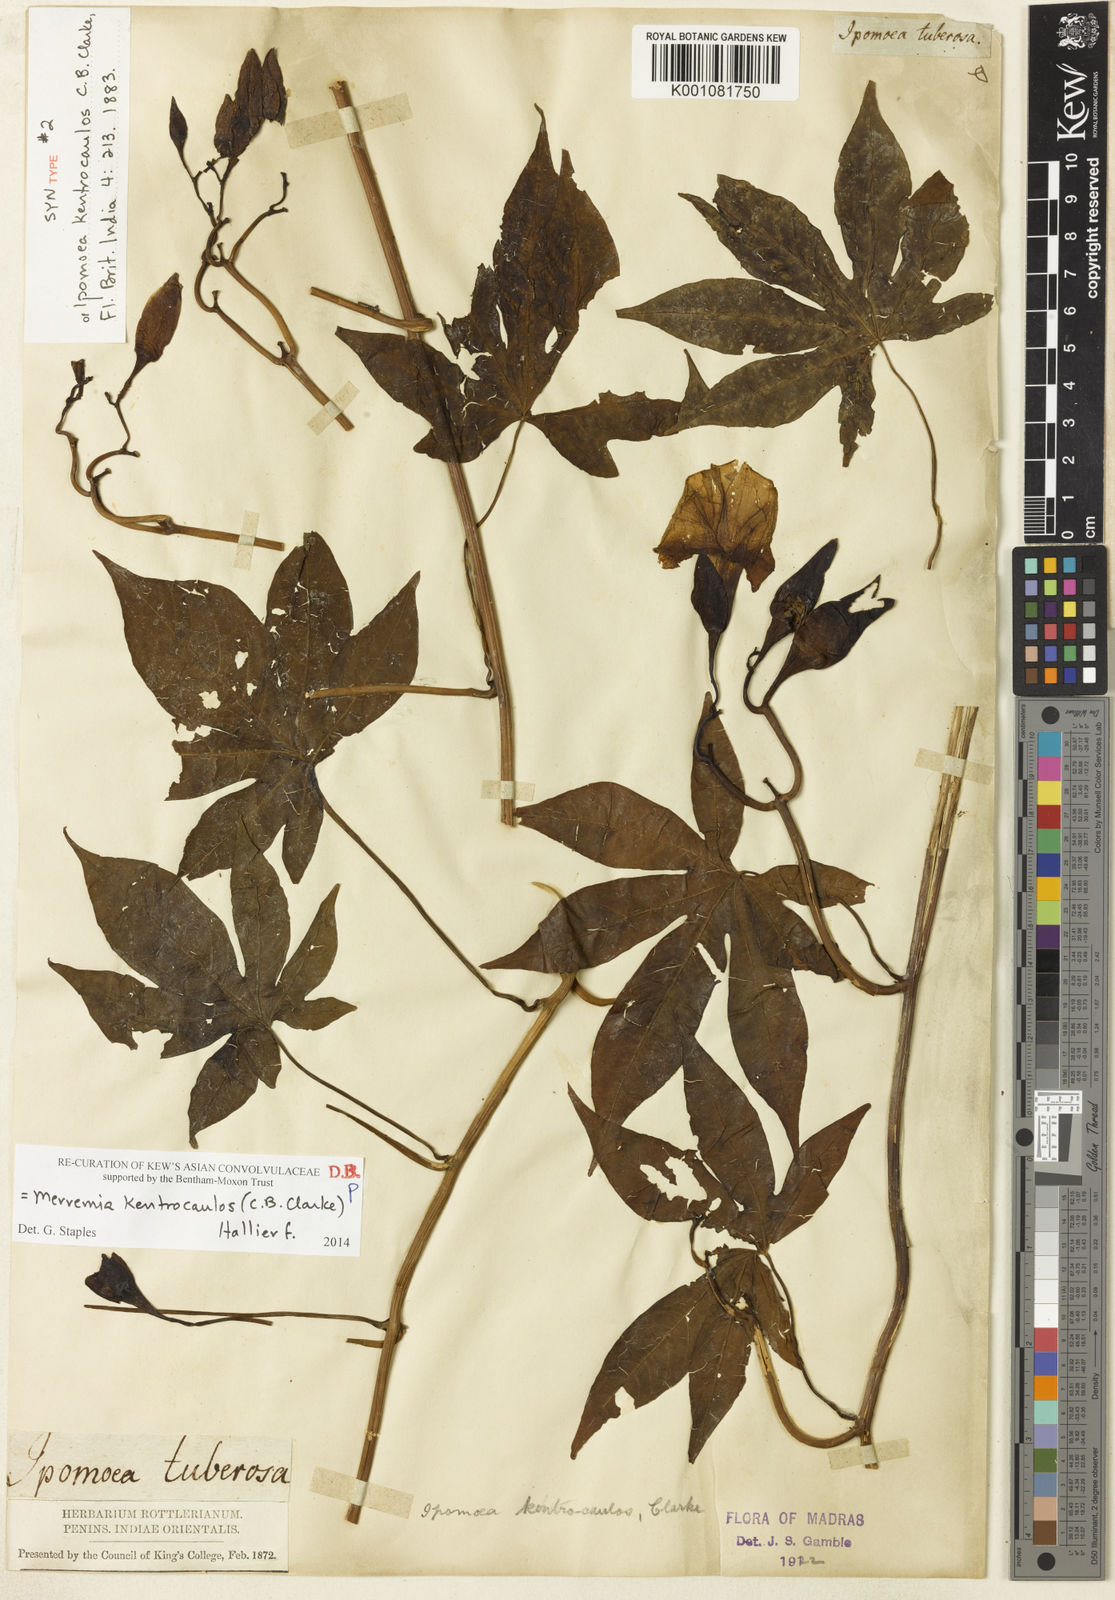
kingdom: Plantae
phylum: Tracheophyta
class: Magnoliopsida
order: Solanales
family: Convolvulaceae
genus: Distimake
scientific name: Distimake kentrocaulos
